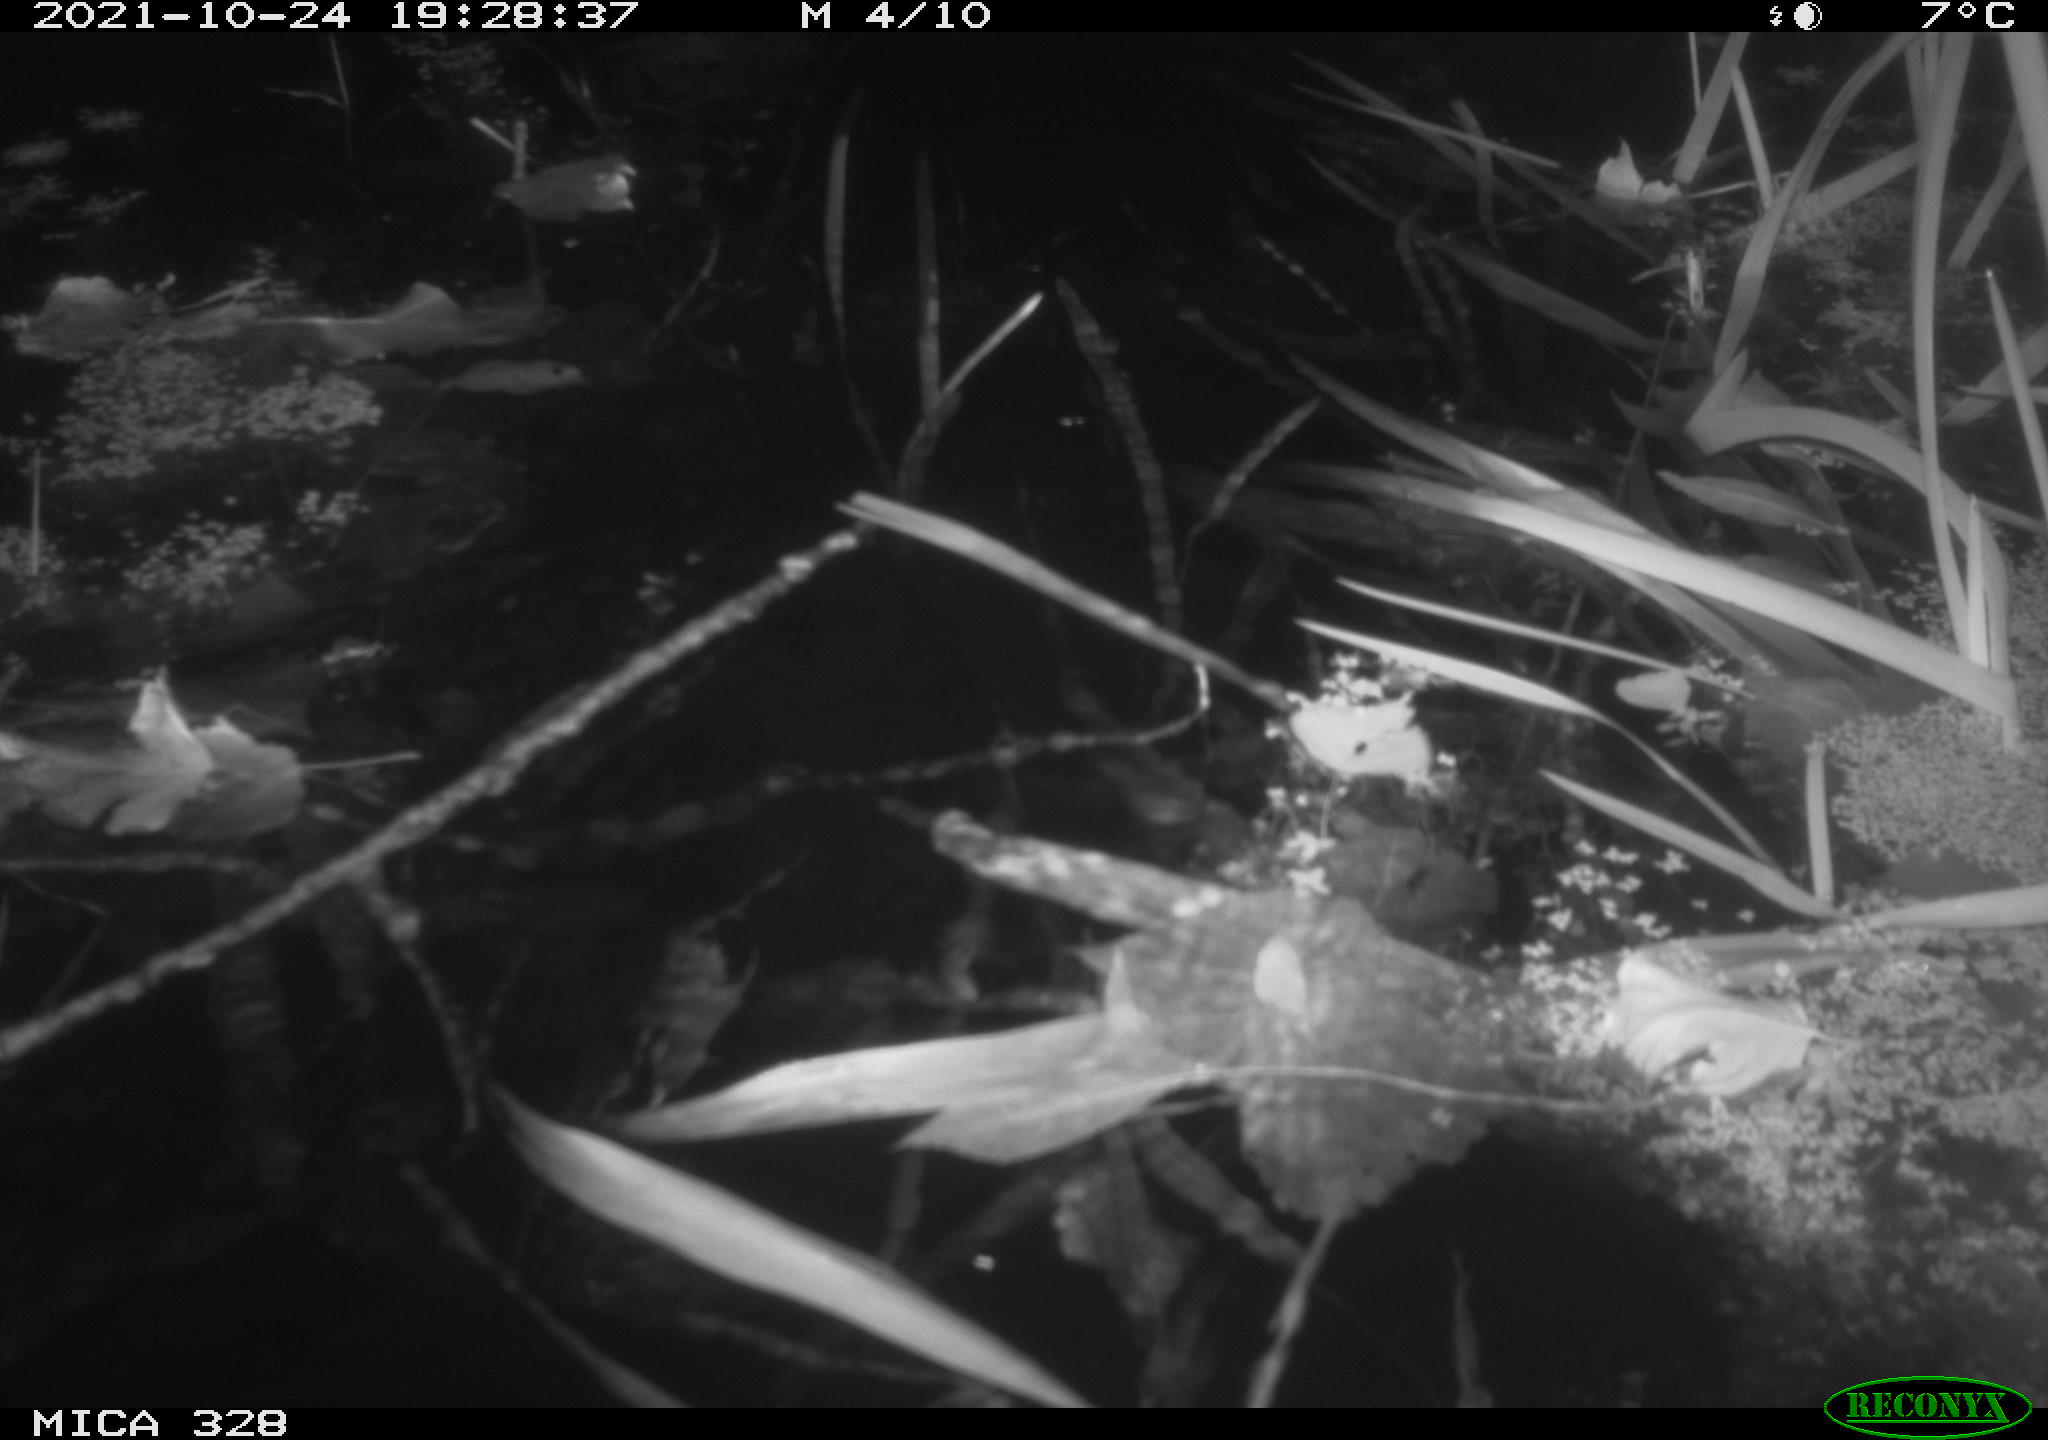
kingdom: Animalia
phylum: Chordata
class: Mammalia
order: Rodentia
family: Cricetidae
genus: Ondatra
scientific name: Ondatra zibethicus
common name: Muskrat
